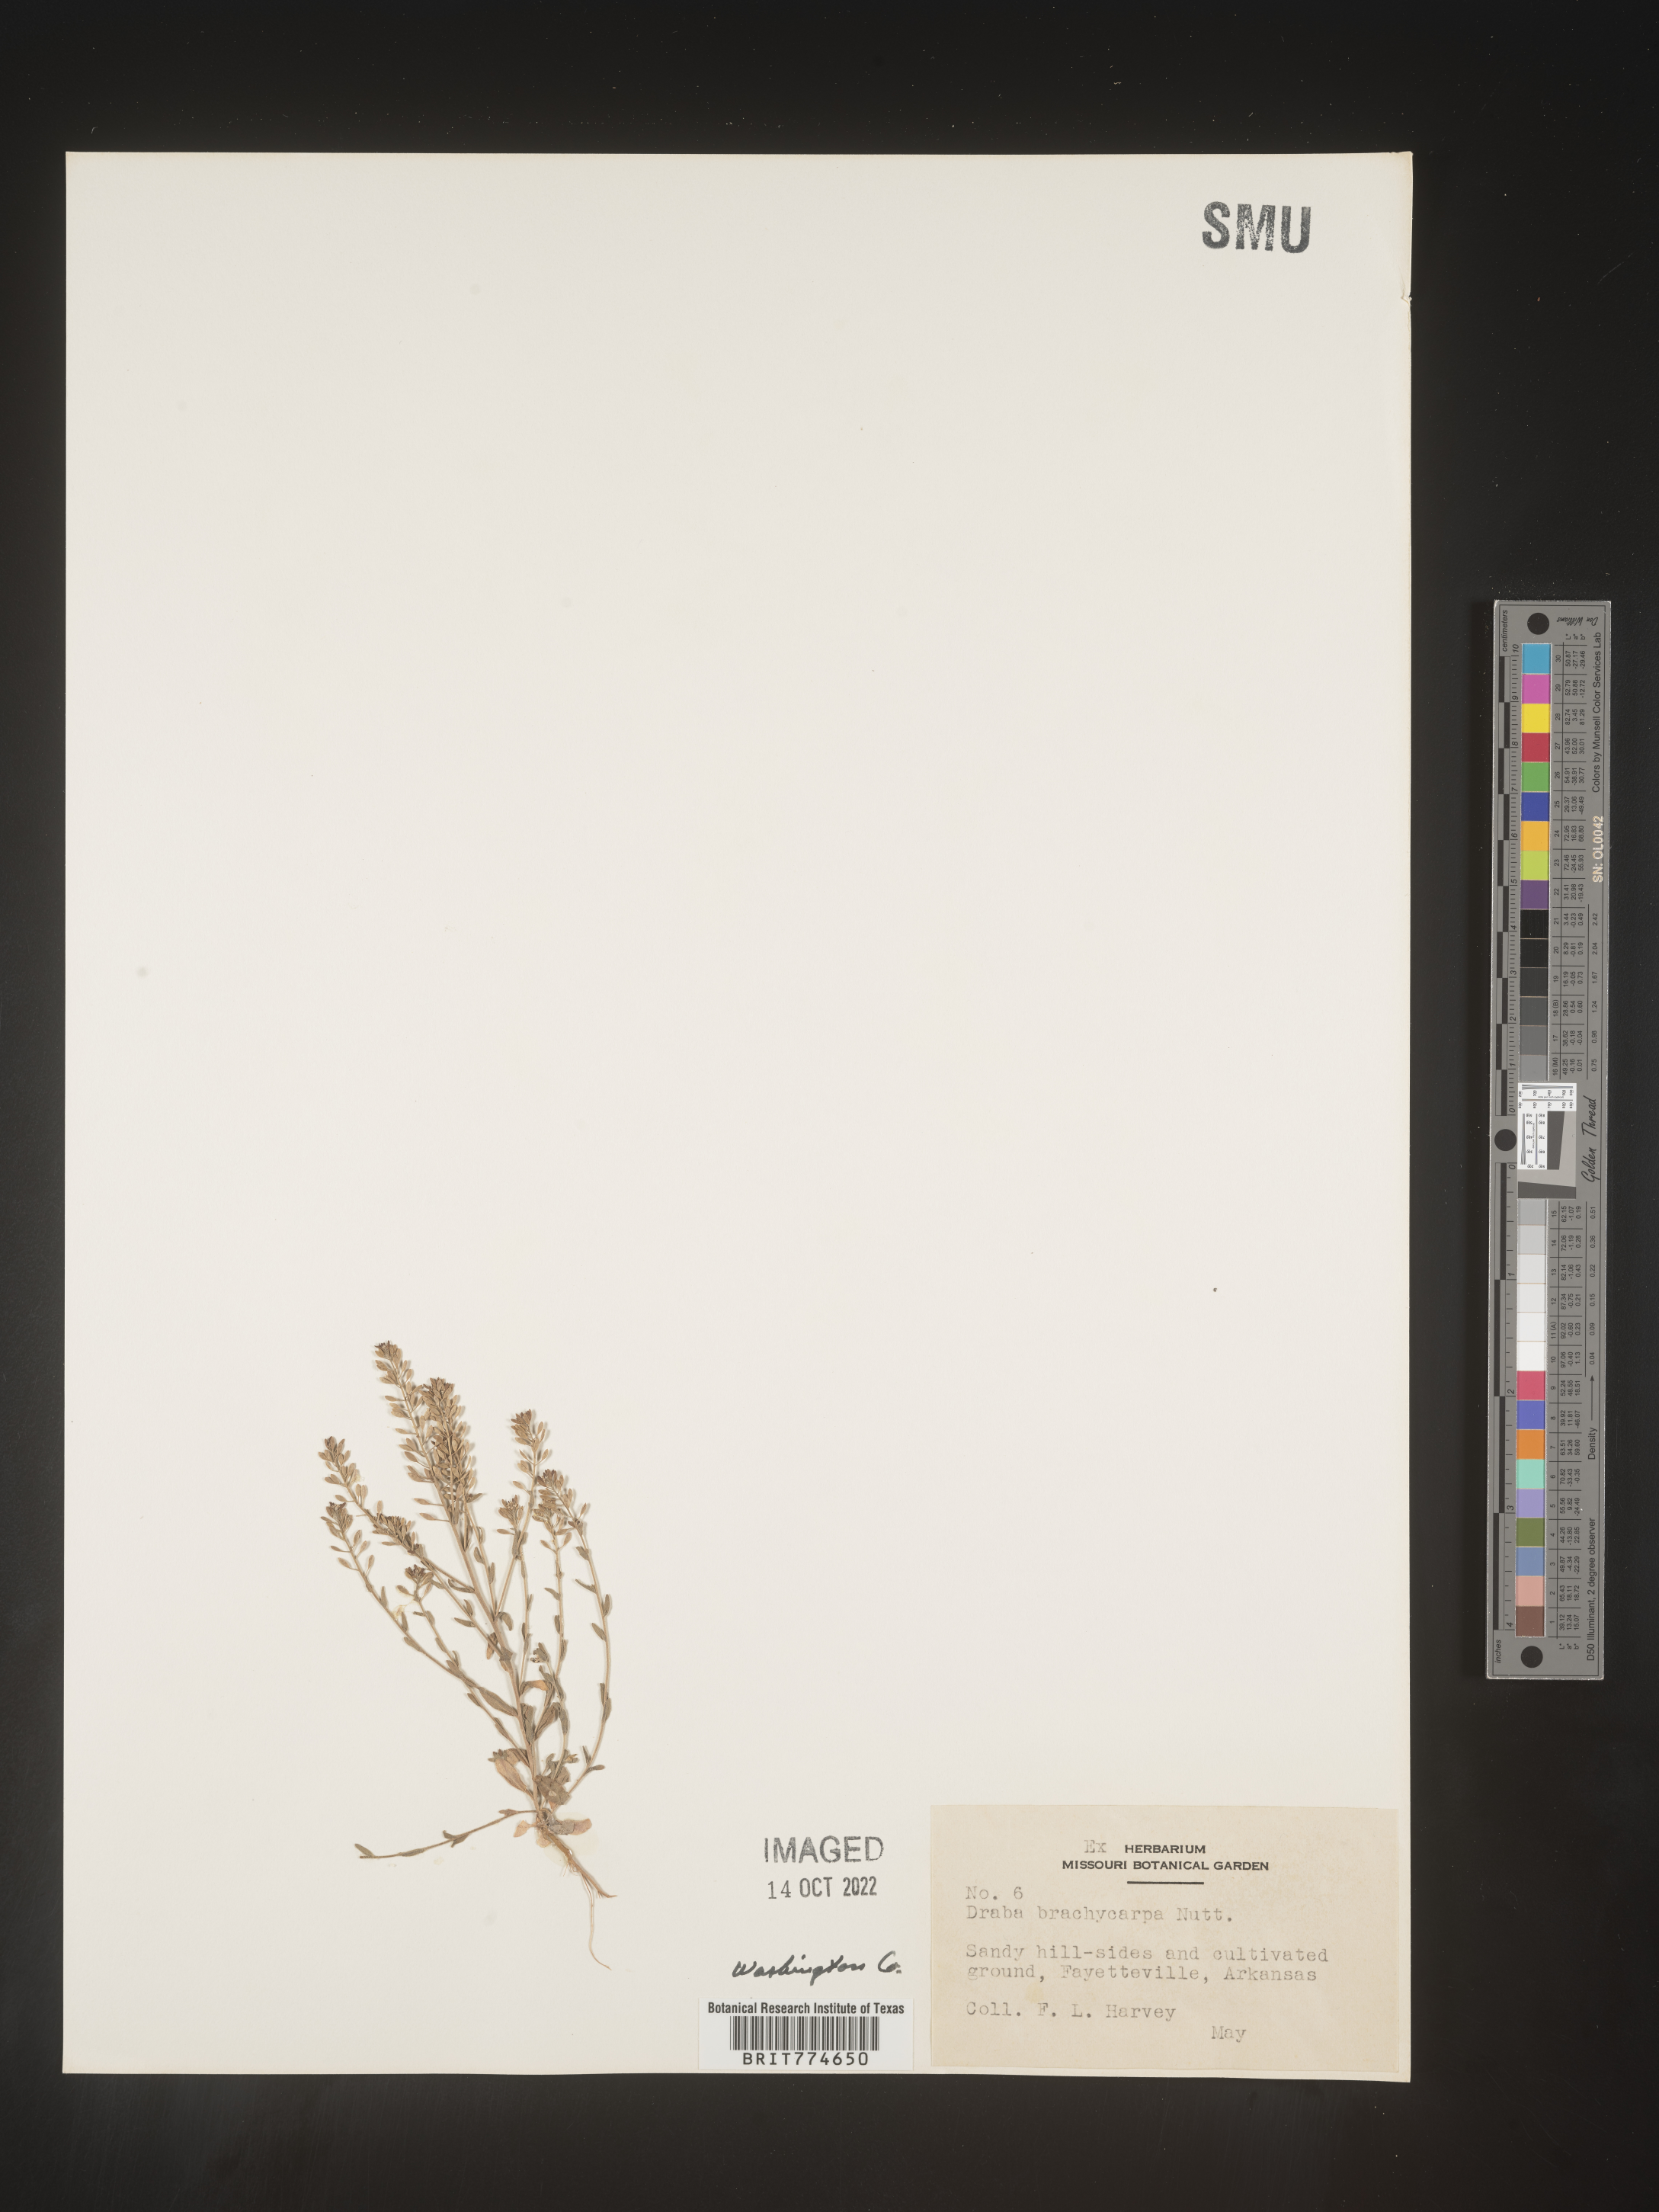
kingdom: Plantae
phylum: Tracheophyta
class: Magnoliopsida
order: Brassicales
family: Brassicaceae
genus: Abdra
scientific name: Abdra brachycarpa
